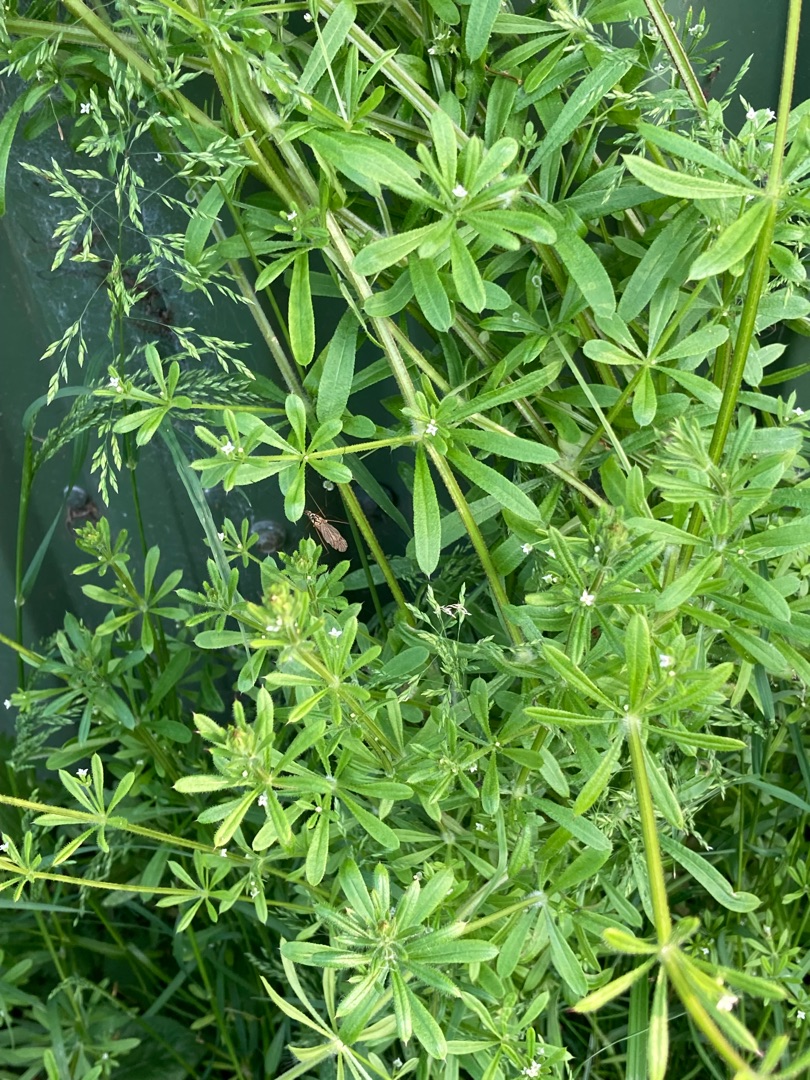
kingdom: Plantae
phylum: Tracheophyta
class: Magnoliopsida
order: Gentianales
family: Rubiaceae
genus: Galium
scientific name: Galium aparine
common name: Burre-snerre
